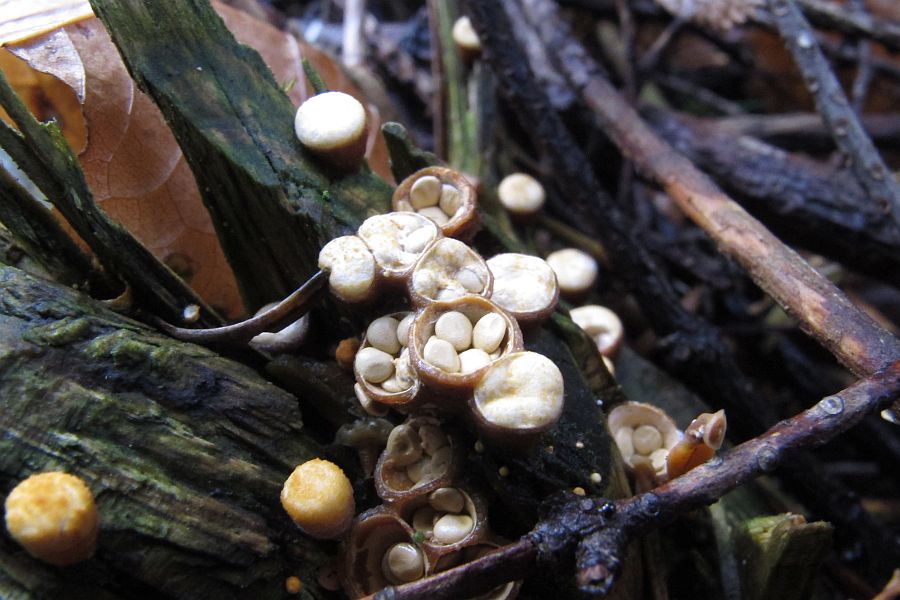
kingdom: Fungi
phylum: Basidiomycota
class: Agaricomycetes
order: Agaricales
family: Nidulariaceae
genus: Crucibulum
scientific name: Crucibulum crucibuliforme
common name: krukkesvamp
